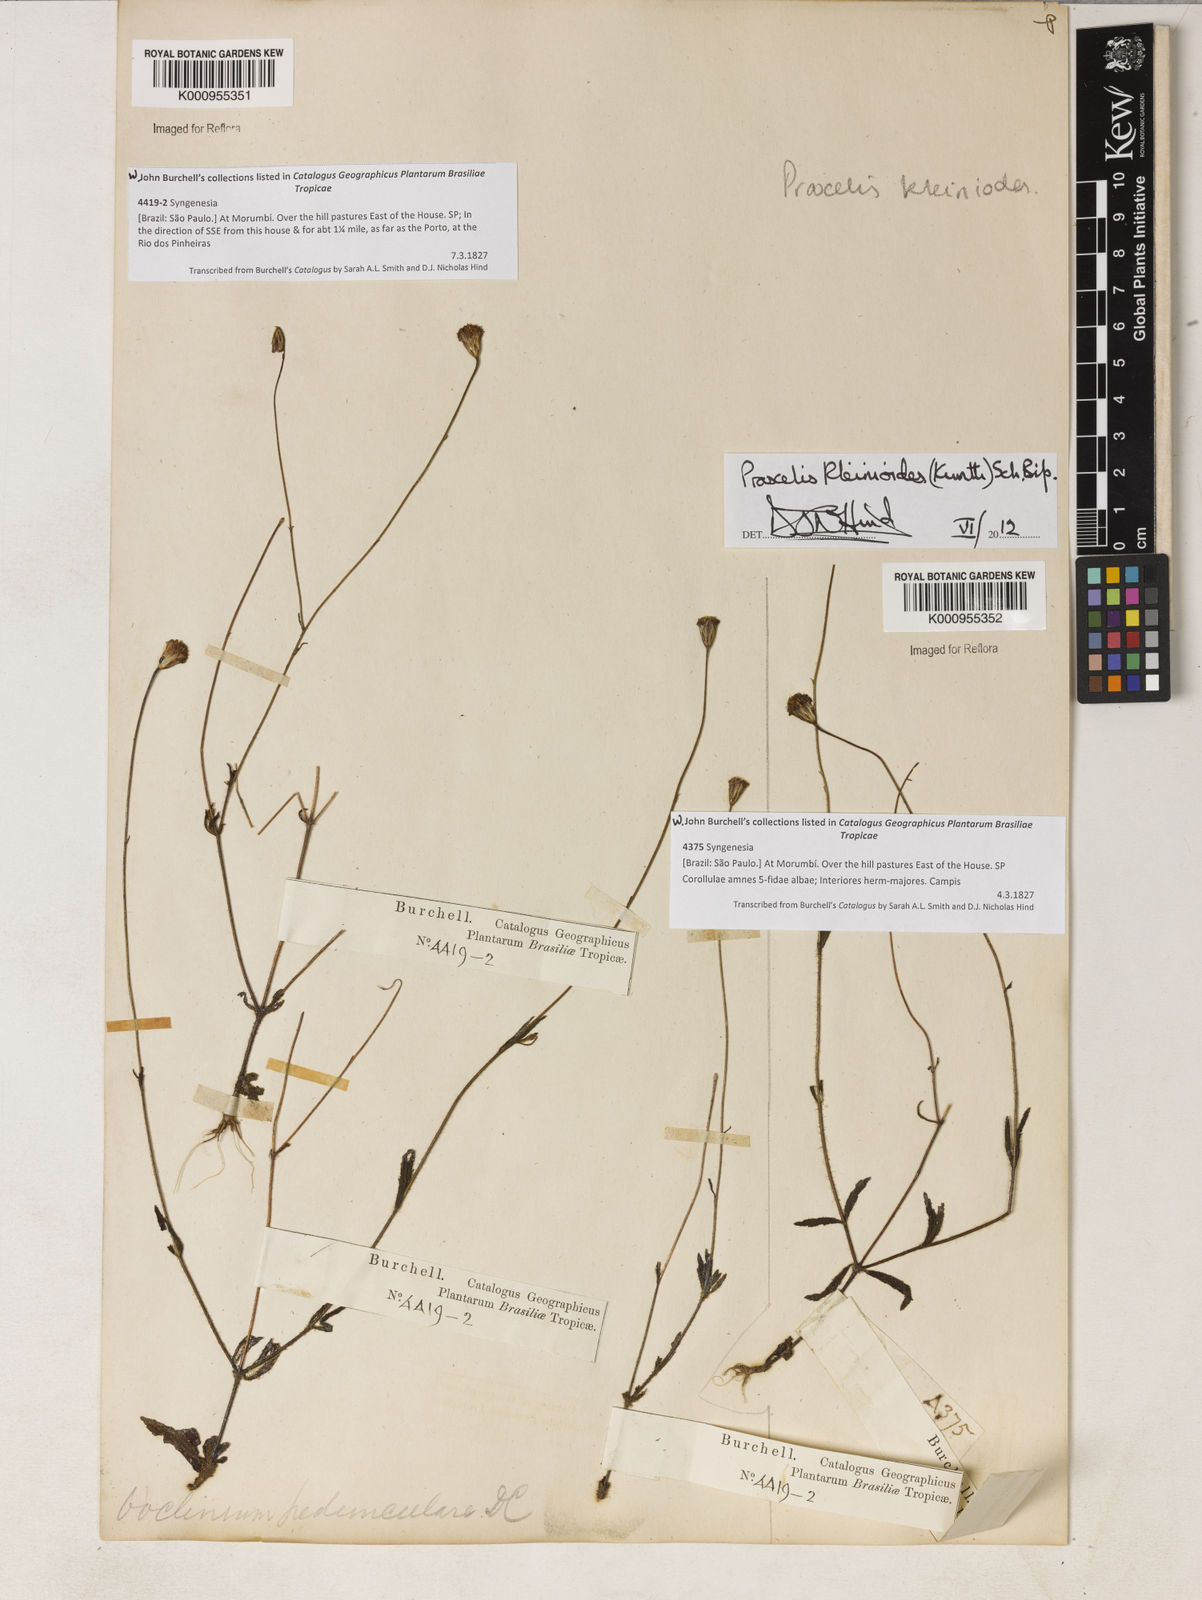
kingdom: Plantae
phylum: Tracheophyta
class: Magnoliopsida
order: Asterales
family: Asteraceae
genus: Praxelis
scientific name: Praxelis kleinioides
